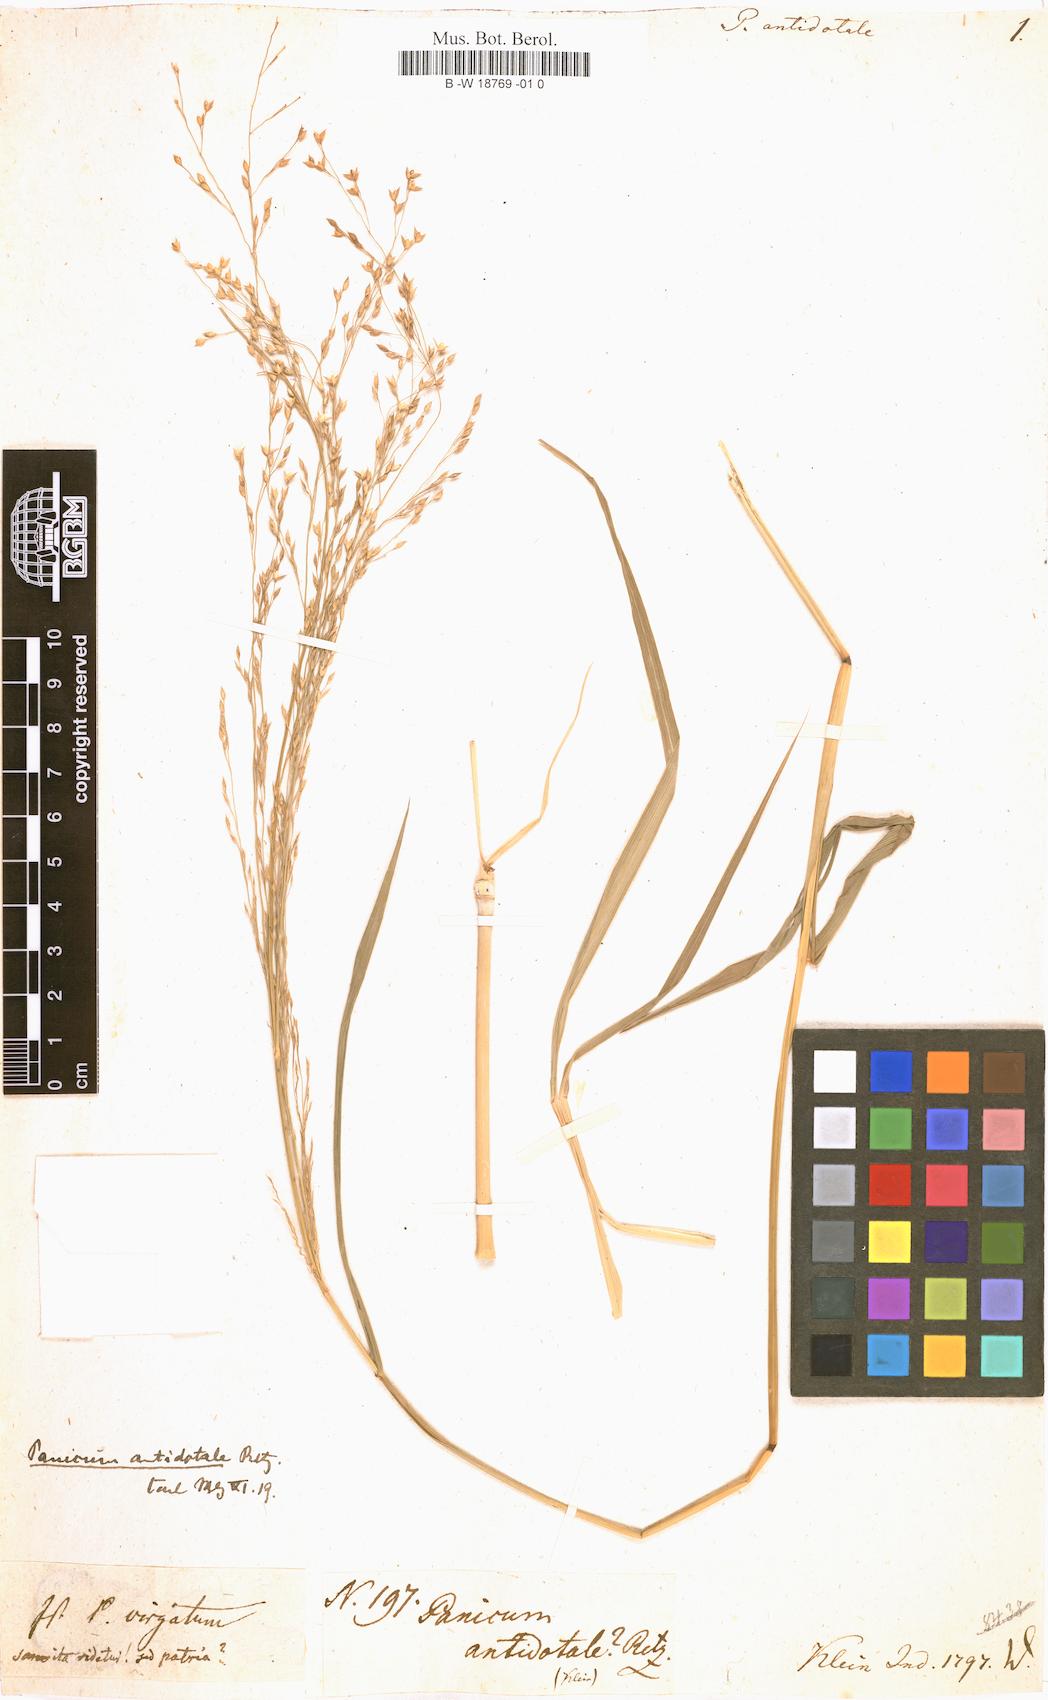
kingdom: Plantae
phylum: Tracheophyta
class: Liliopsida
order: Poales
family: Poaceae
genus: Panicum
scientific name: Panicum antidotale
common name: Blue panicum
